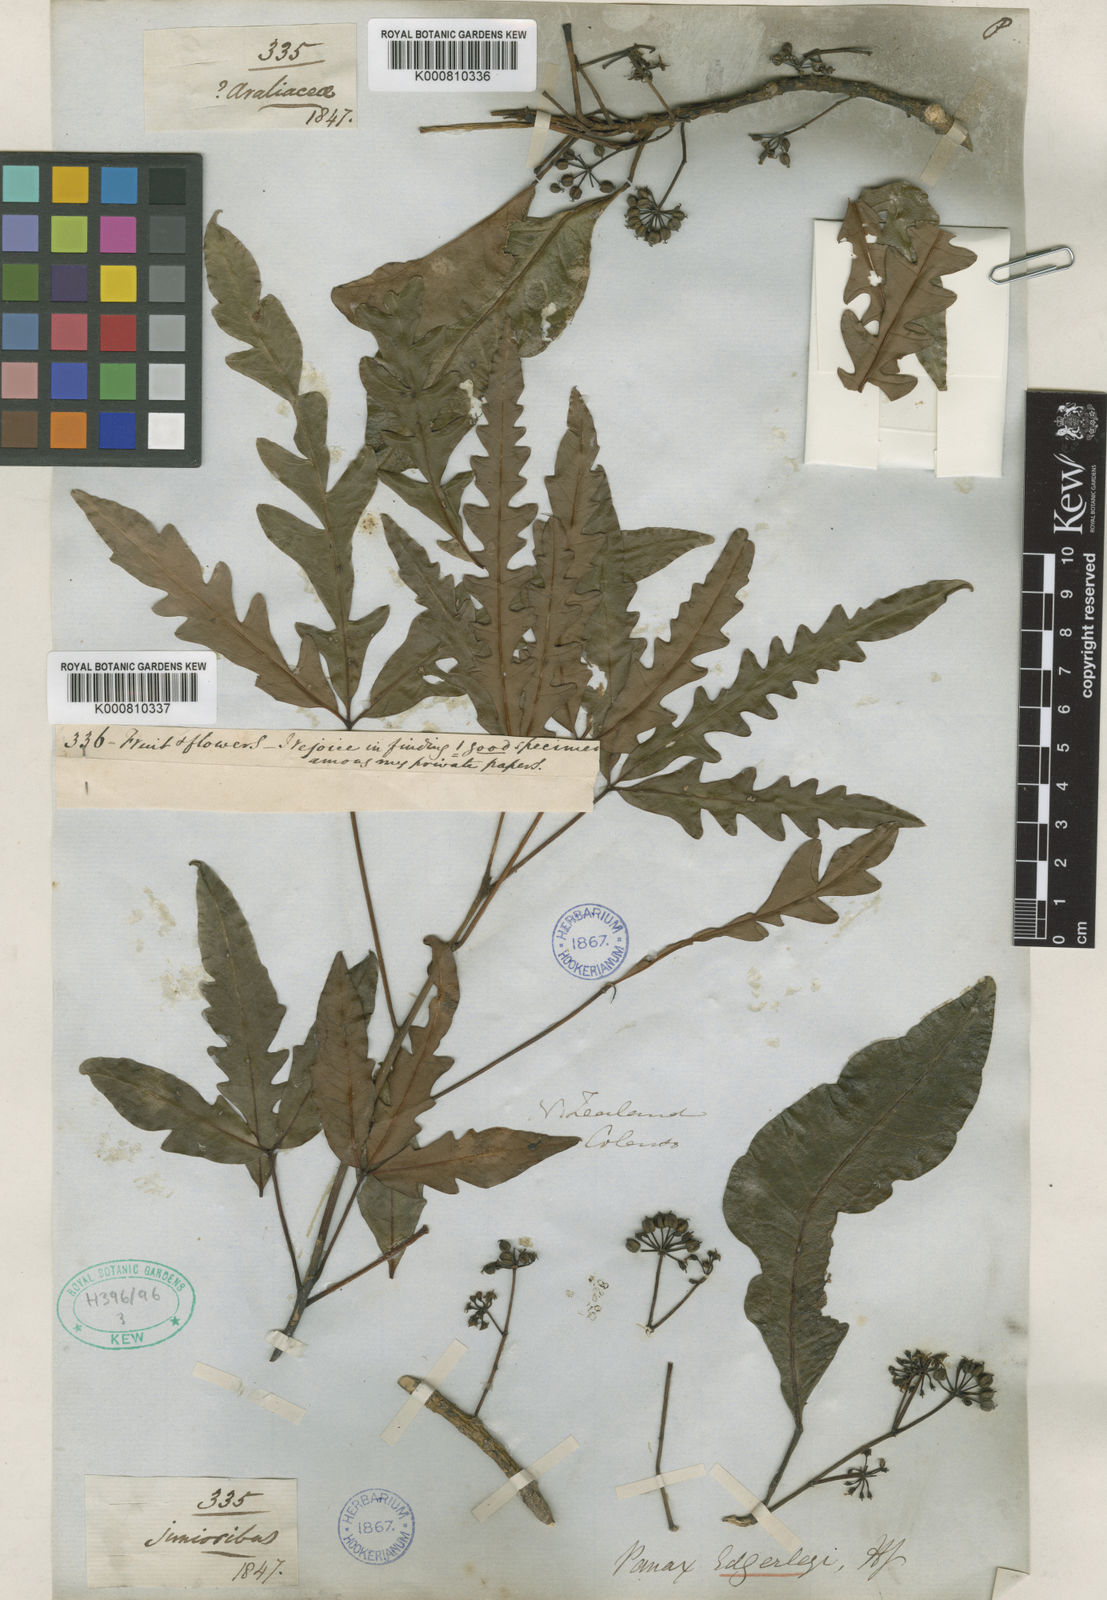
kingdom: Plantae
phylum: Tracheophyta
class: Magnoliopsida
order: Apiales
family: Araliaceae
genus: Raukaua
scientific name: Raukaua edgerleyi
